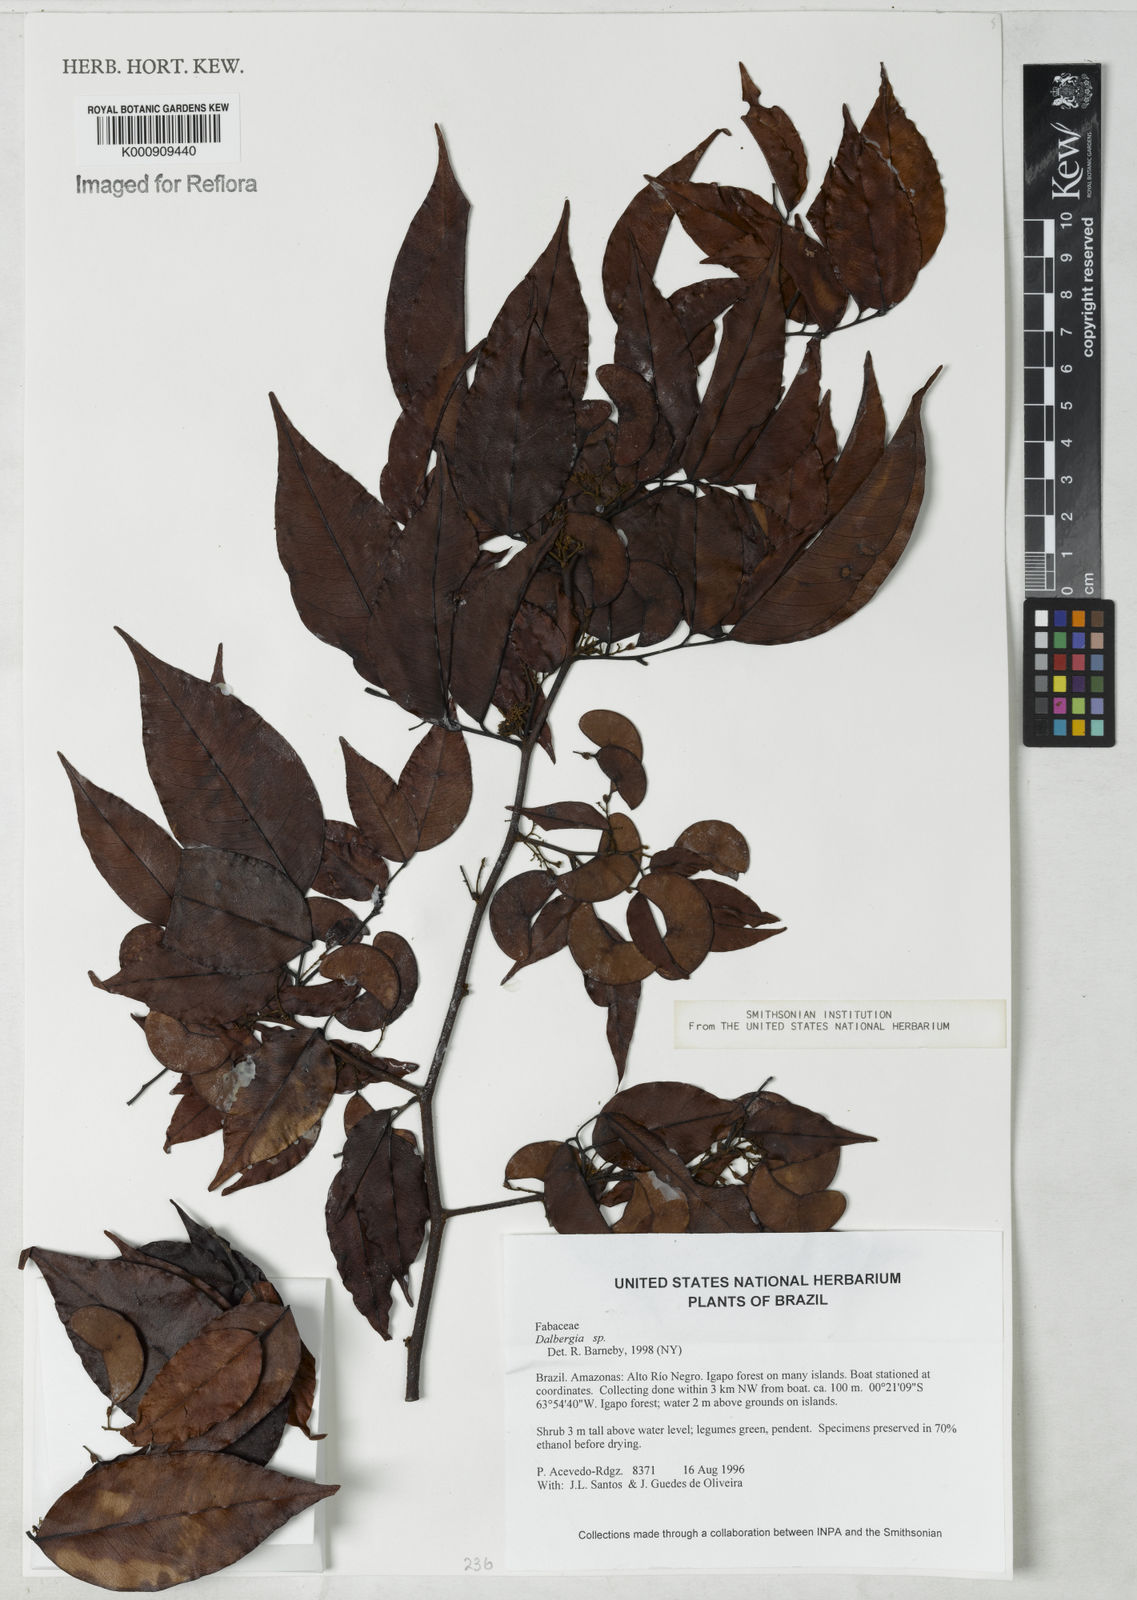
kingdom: Plantae
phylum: Tracheophyta
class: Magnoliopsida
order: Fabales
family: Fabaceae
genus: Dalbergia
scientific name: Dalbergia
